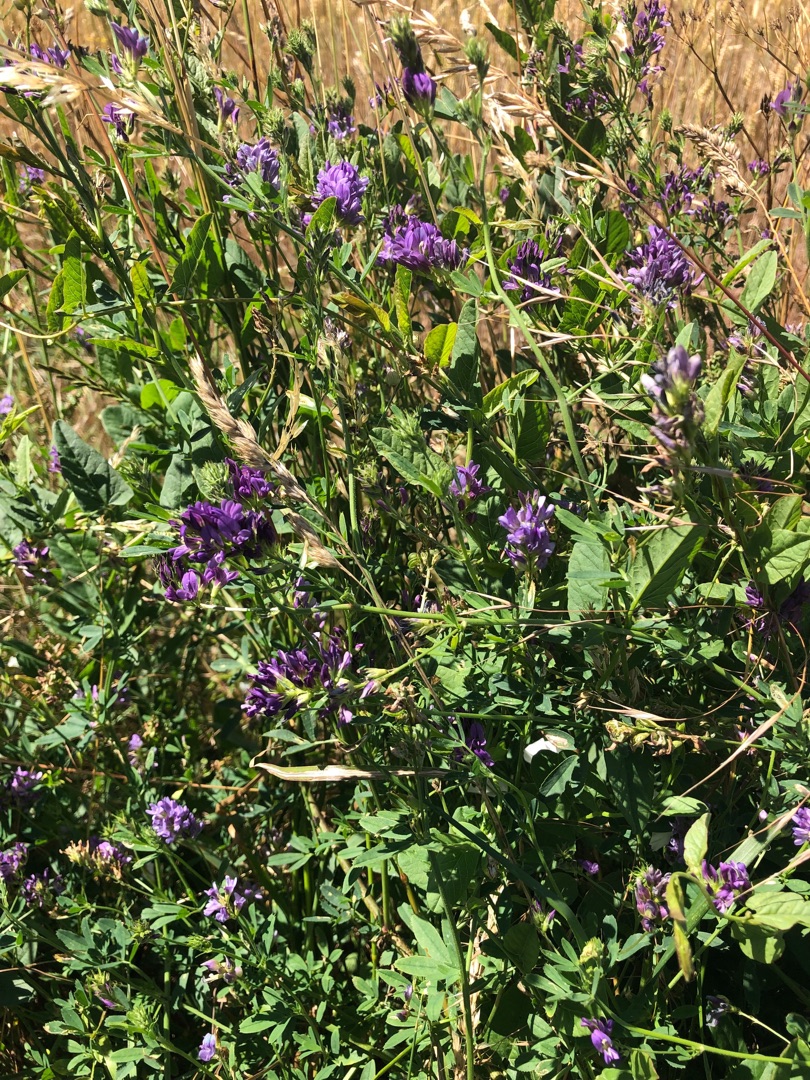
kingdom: Plantae
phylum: Tracheophyta
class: Magnoliopsida
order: Fabales
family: Fabaceae
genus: Medicago
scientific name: Medicago sativa
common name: Lucerne
